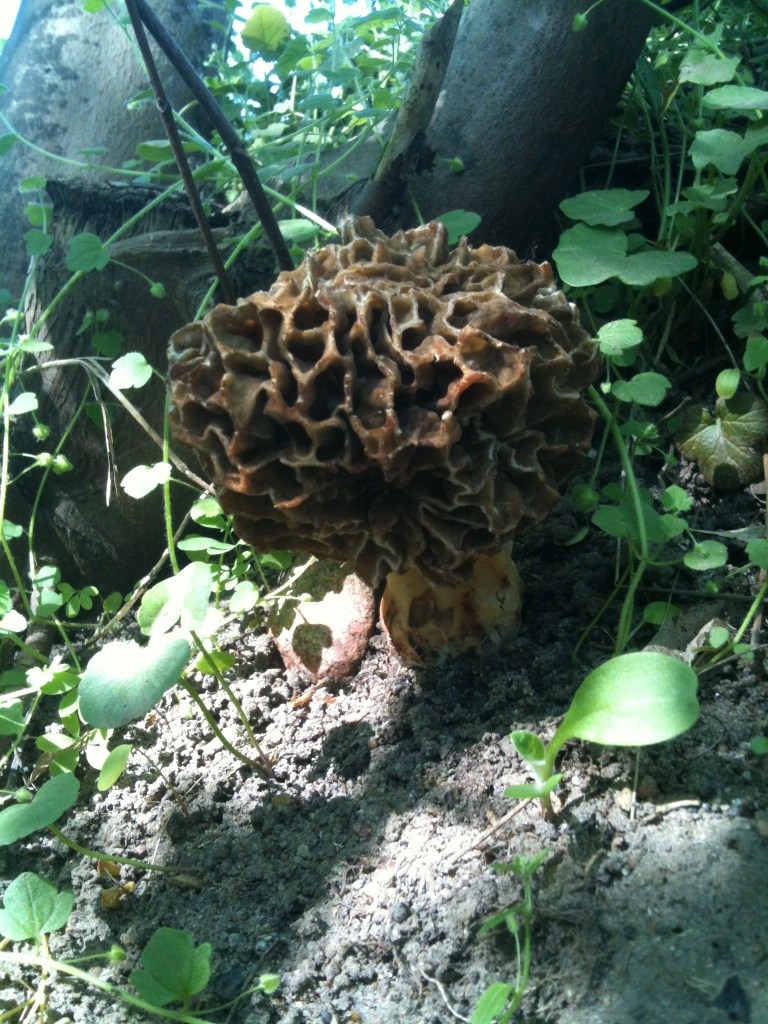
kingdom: Fungi
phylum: Ascomycota
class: Pezizomycetes
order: Pezizales
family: Morchellaceae
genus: Morchella
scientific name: Morchella esculenta
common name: spiselig morkel
